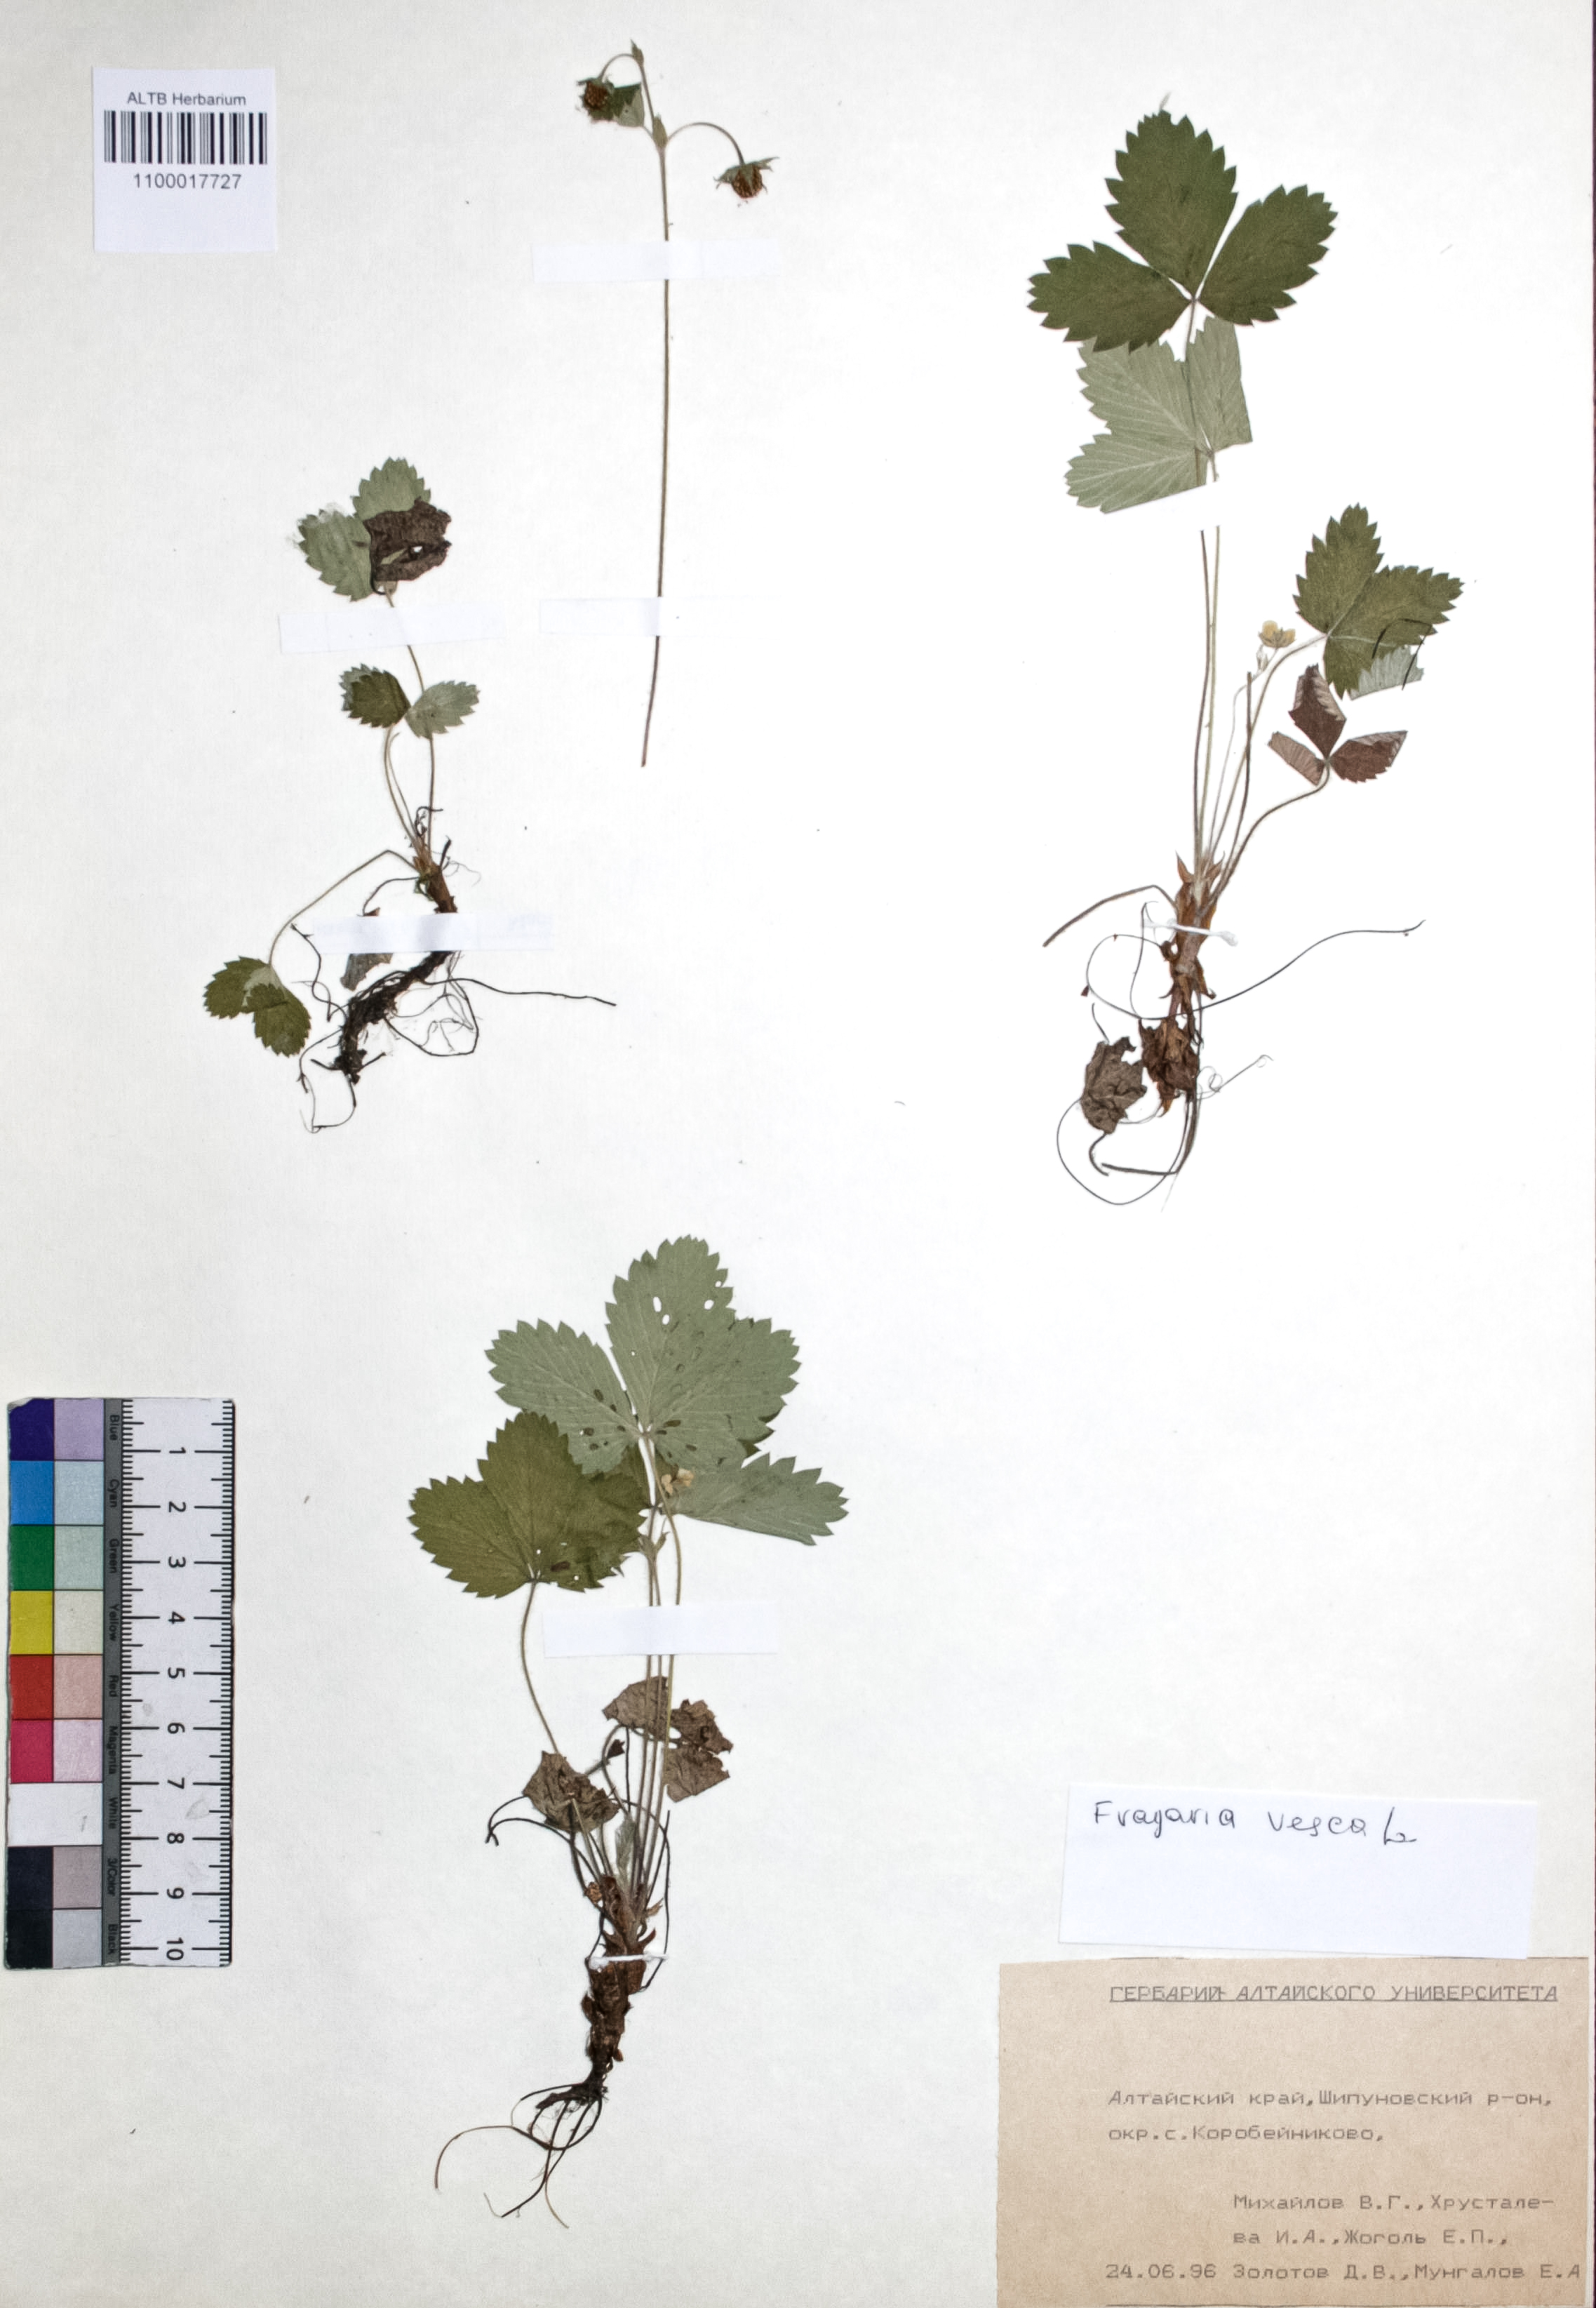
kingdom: Plantae
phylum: Tracheophyta
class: Magnoliopsida
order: Rosales
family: Rosaceae
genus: Fragaria
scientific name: Fragaria vesca
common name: Wild strawberry
